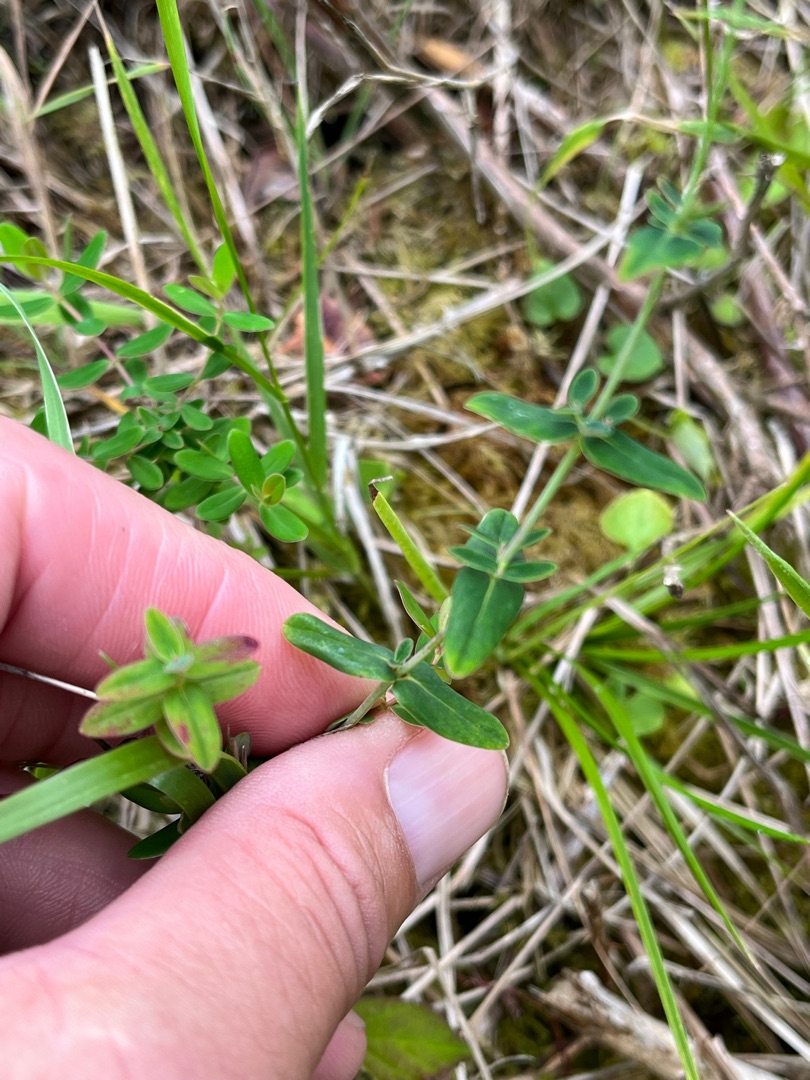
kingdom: Plantae
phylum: Tracheophyta
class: Magnoliopsida
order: Malpighiales
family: Hypericaceae
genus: Hypericum
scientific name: Hypericum pulchrum
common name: Smuk perikon
